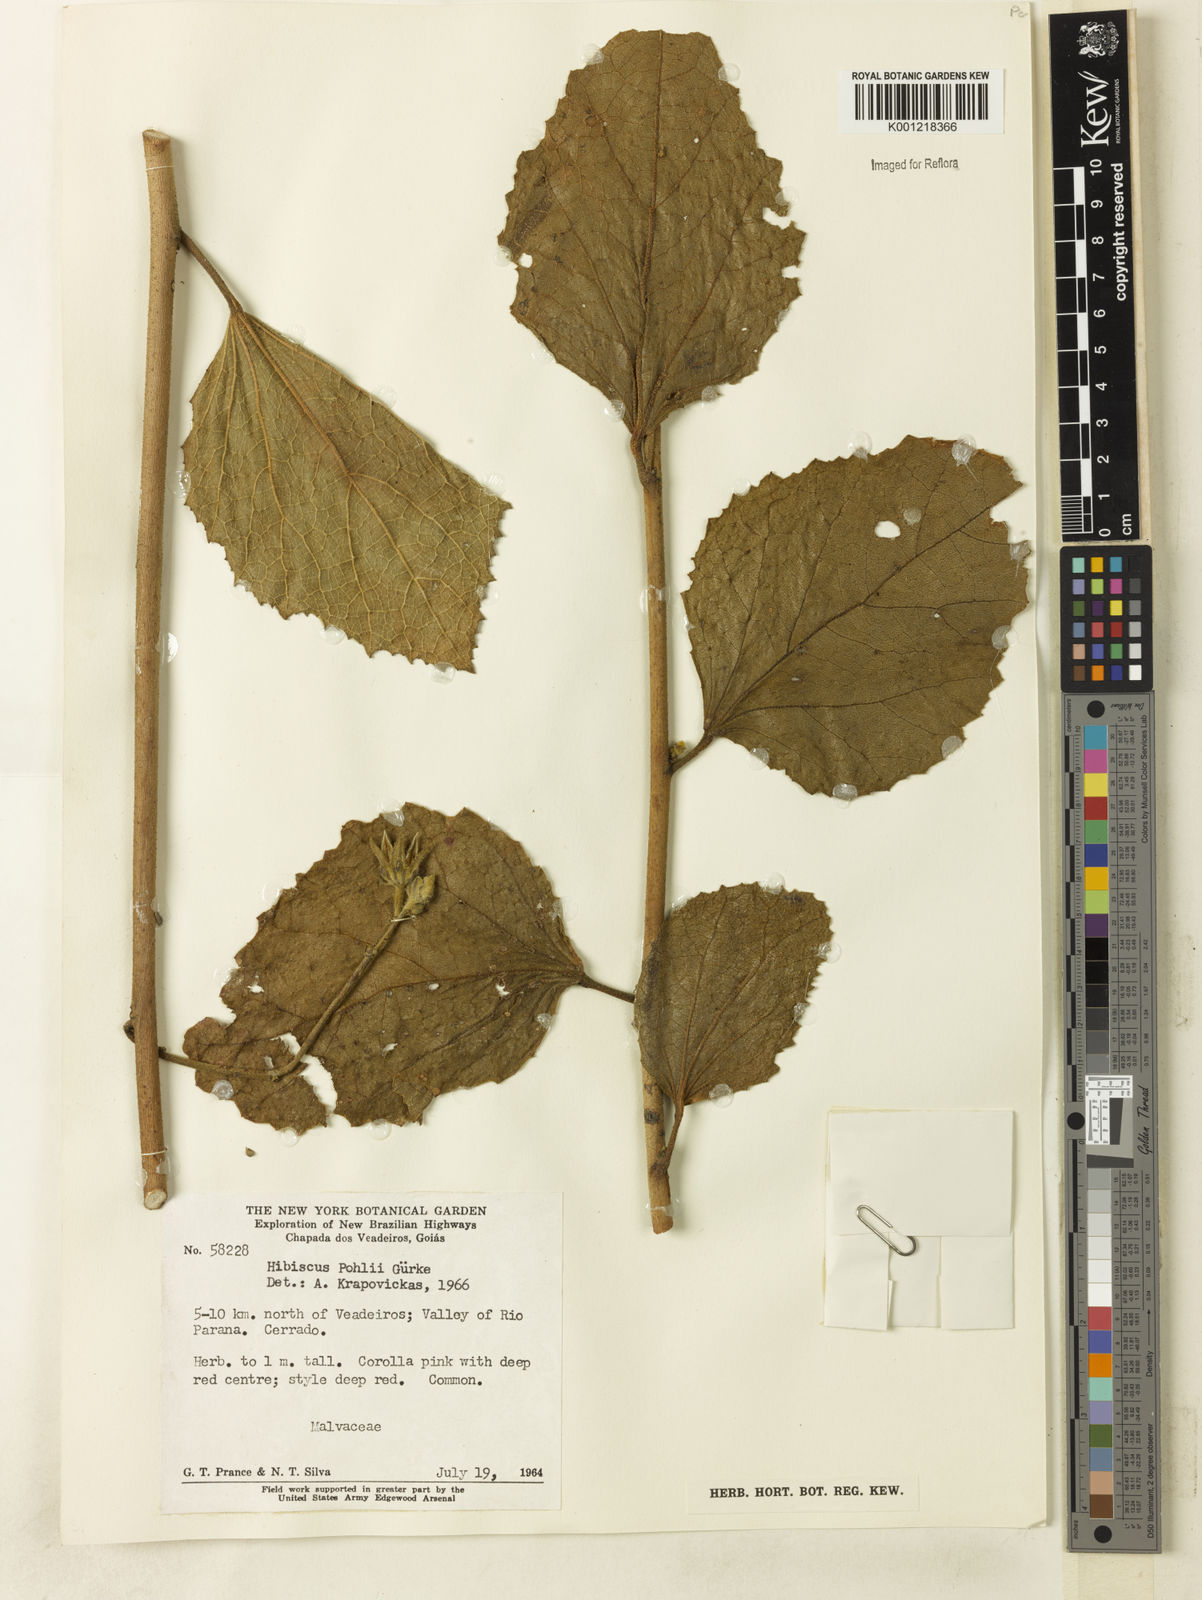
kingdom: Plantae
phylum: Tracheophyta
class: Magnoliopsida
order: Malvales
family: Malvaceae
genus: Hibiscus
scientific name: Hibiscus
